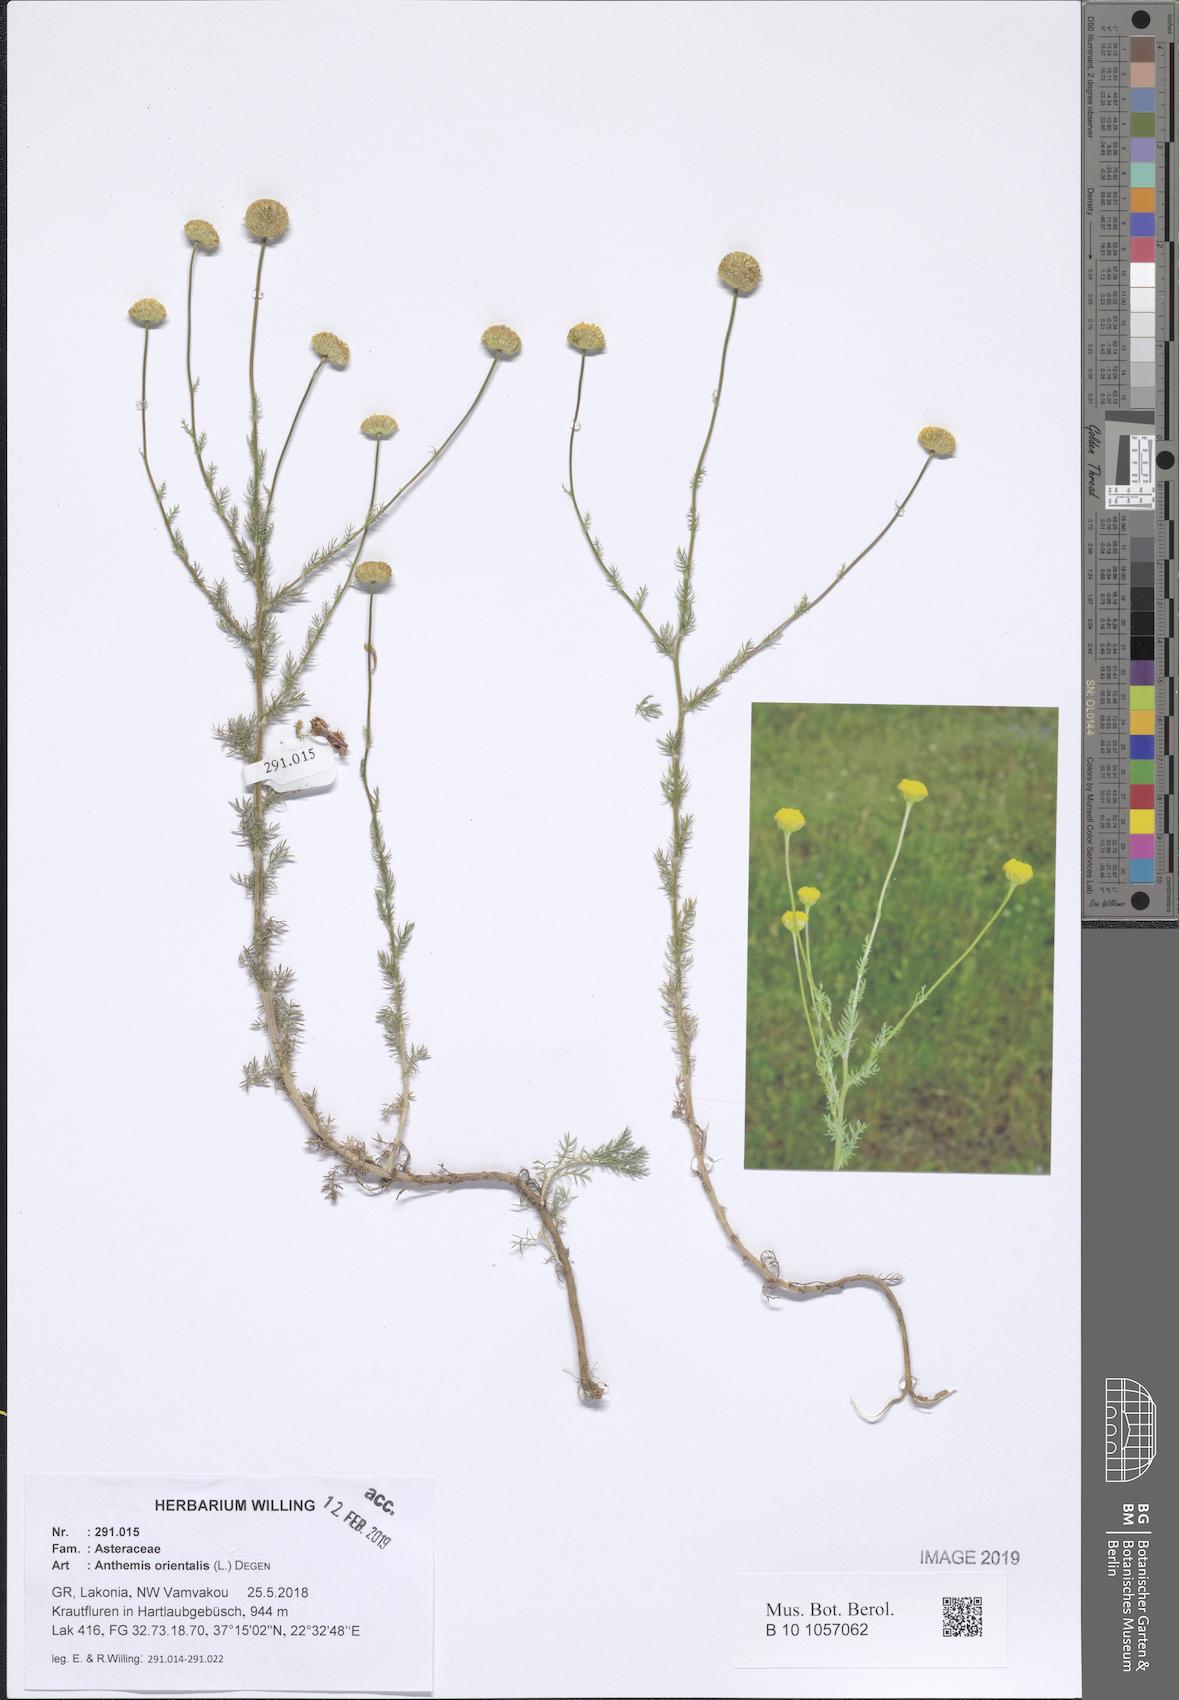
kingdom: Plantae
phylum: Tracheophyta
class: Magnoliopsida
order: Asterales
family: Asteraceae
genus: Anthemis
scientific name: Anthemis orientalis
